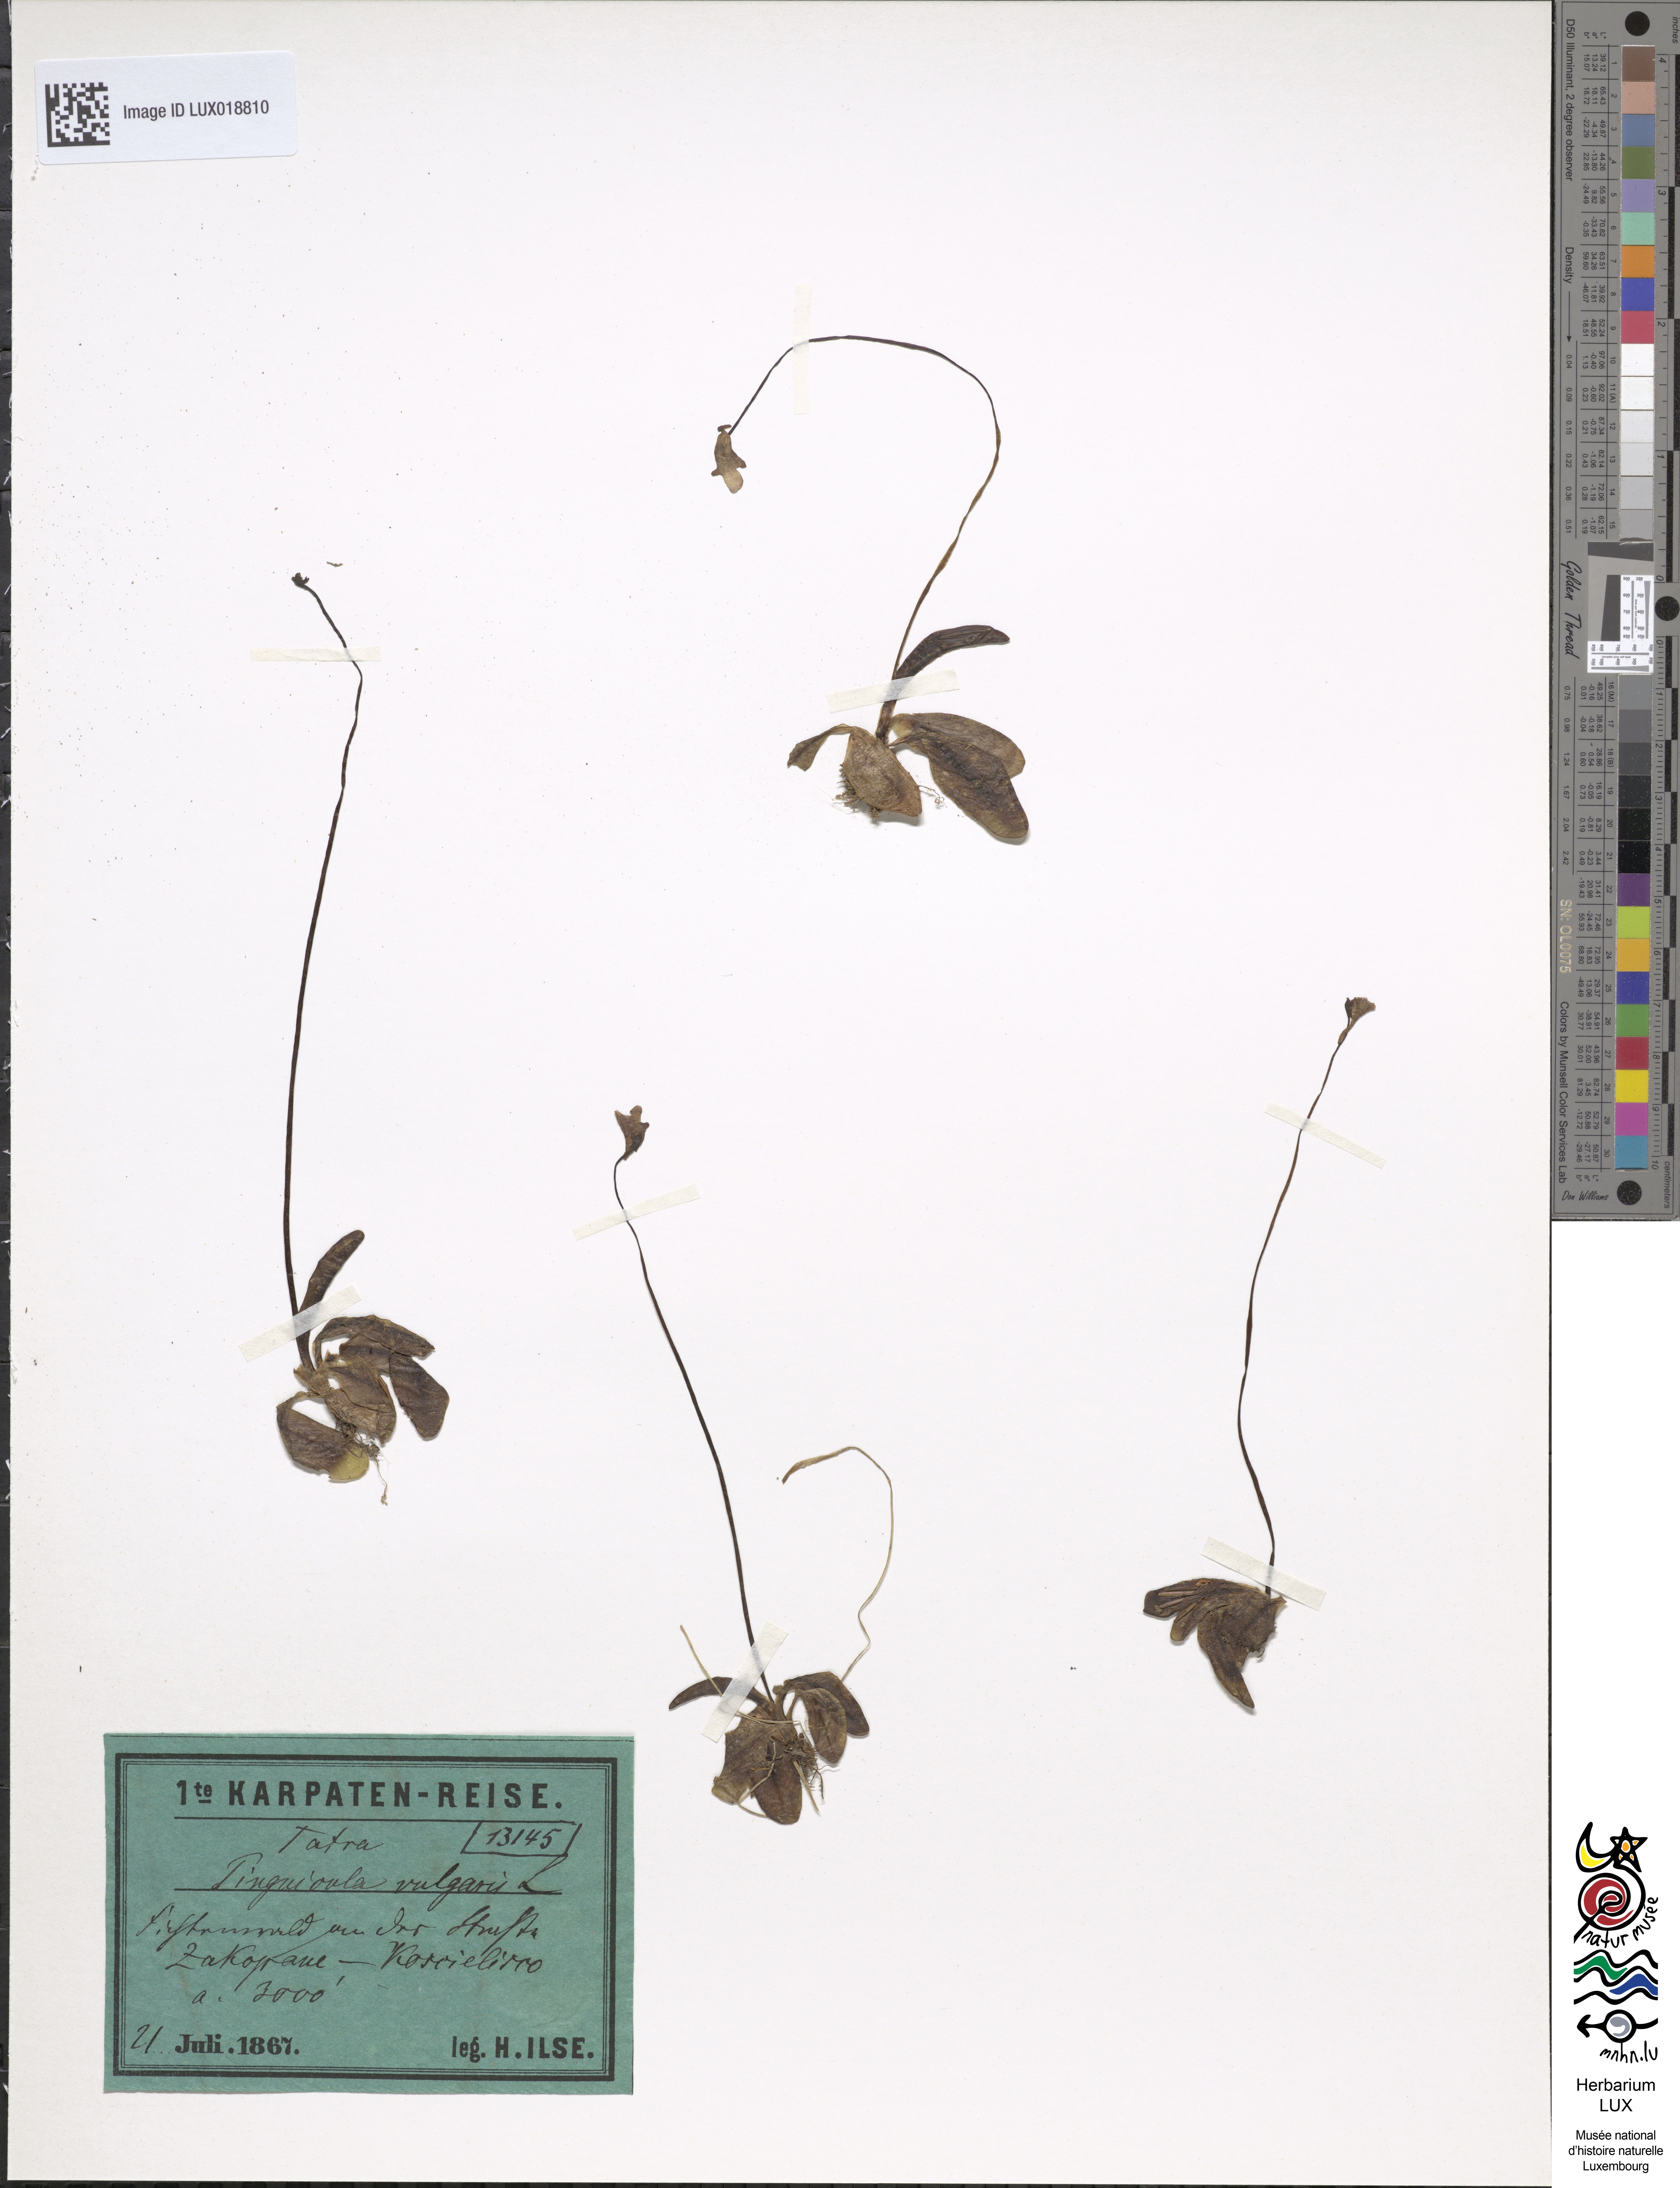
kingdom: Plantae
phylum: Tracheophyta
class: Magnoliopsida
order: Lamiales
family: Lentibulariaceae
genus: Pinguicula
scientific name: Pinguicula vulgaris
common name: Common butterwort
